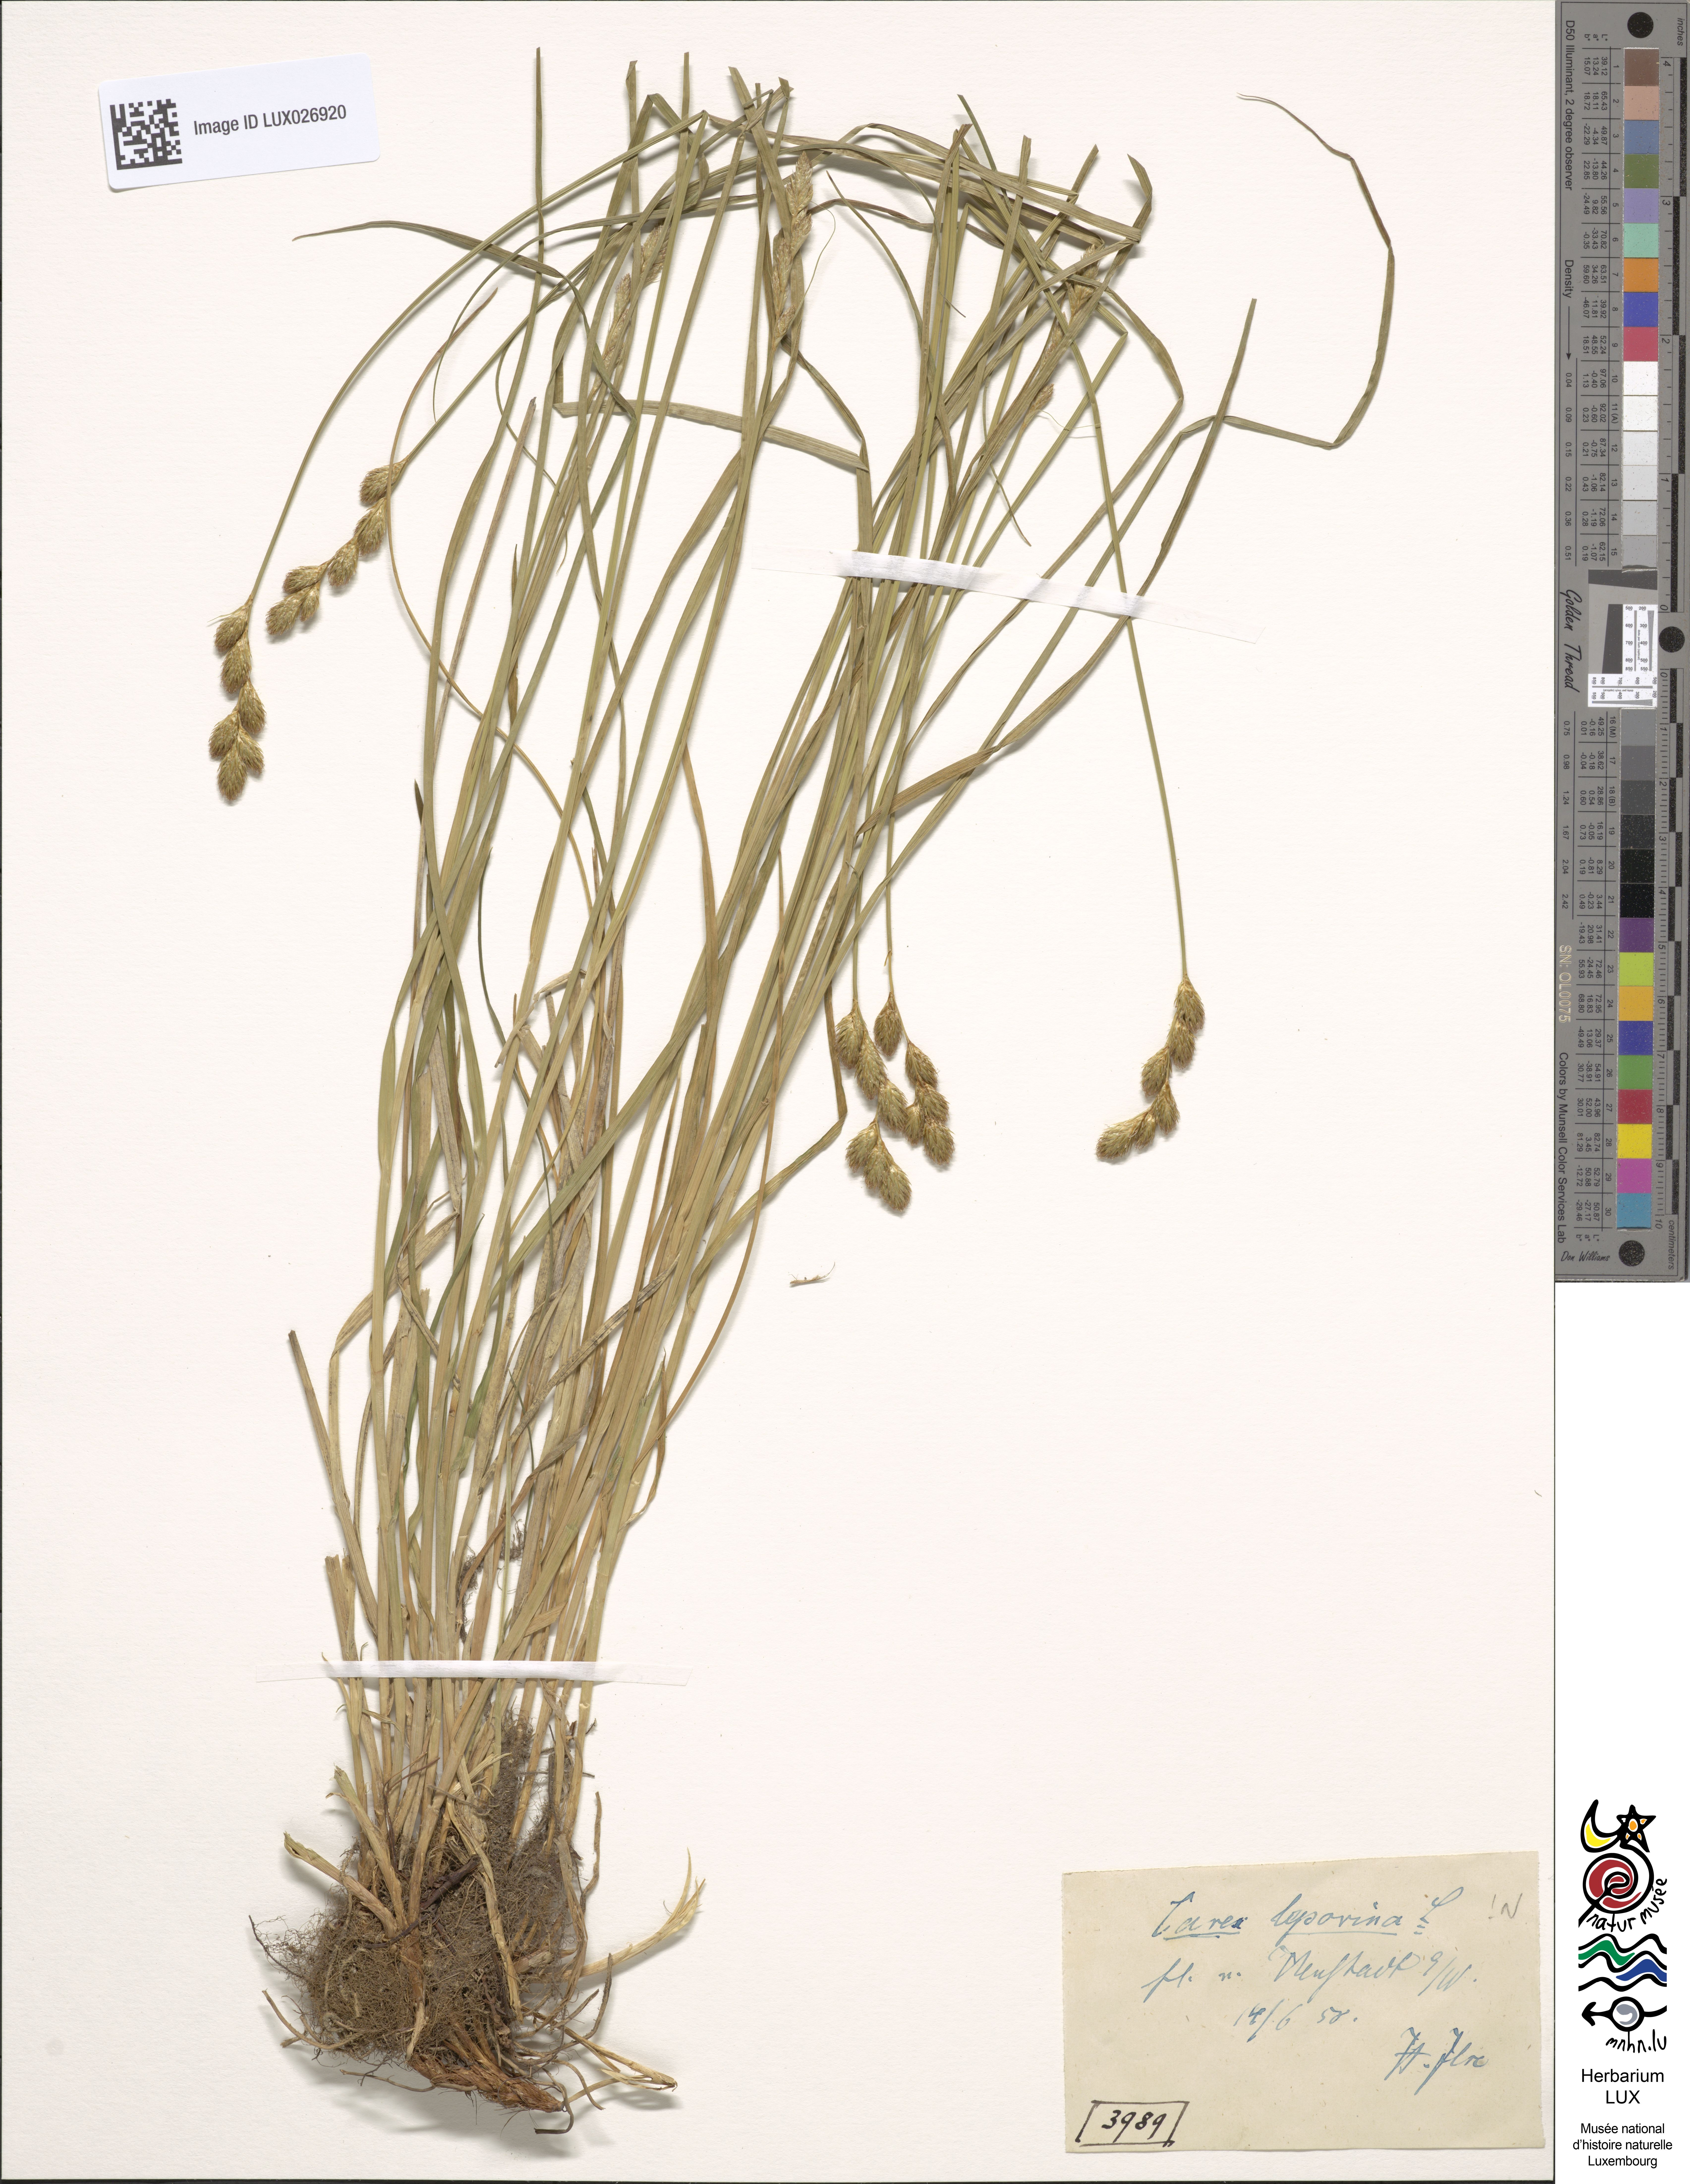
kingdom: Plantae
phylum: Tracheophyta
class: Liliopsida
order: Poales
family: Cyperaceae
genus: Carex
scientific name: Carex leporina
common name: Oval sedge
